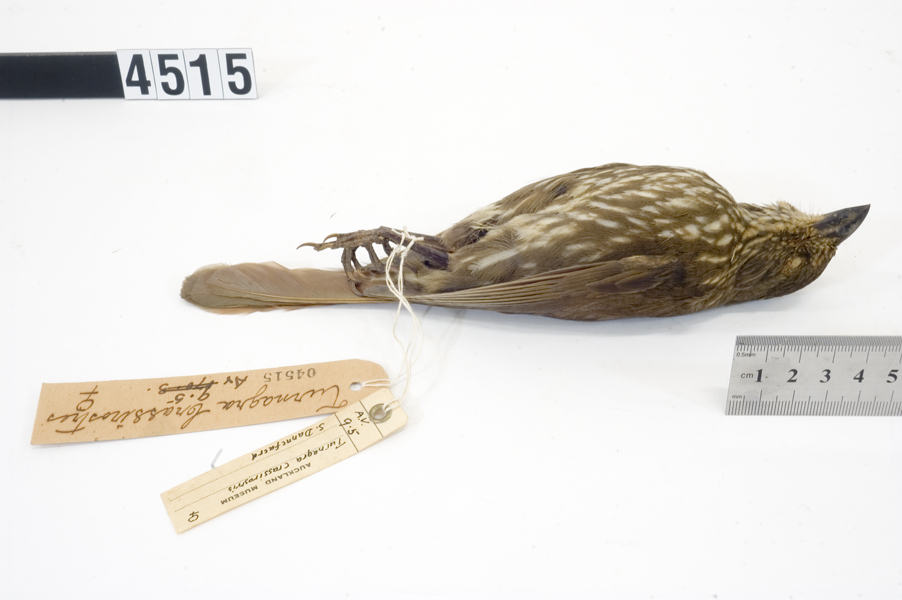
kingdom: Animalia
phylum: Chordata
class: Aves
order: Passeriformes
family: Ptilonorhynchidae
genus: Turnagra
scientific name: Turnagra capensis
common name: South island piopio
